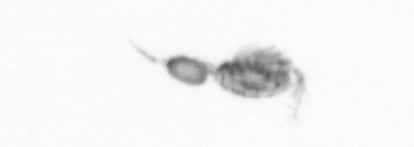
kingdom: Animalia
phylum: Arthropoda
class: Copepoda
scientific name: Copepoda
